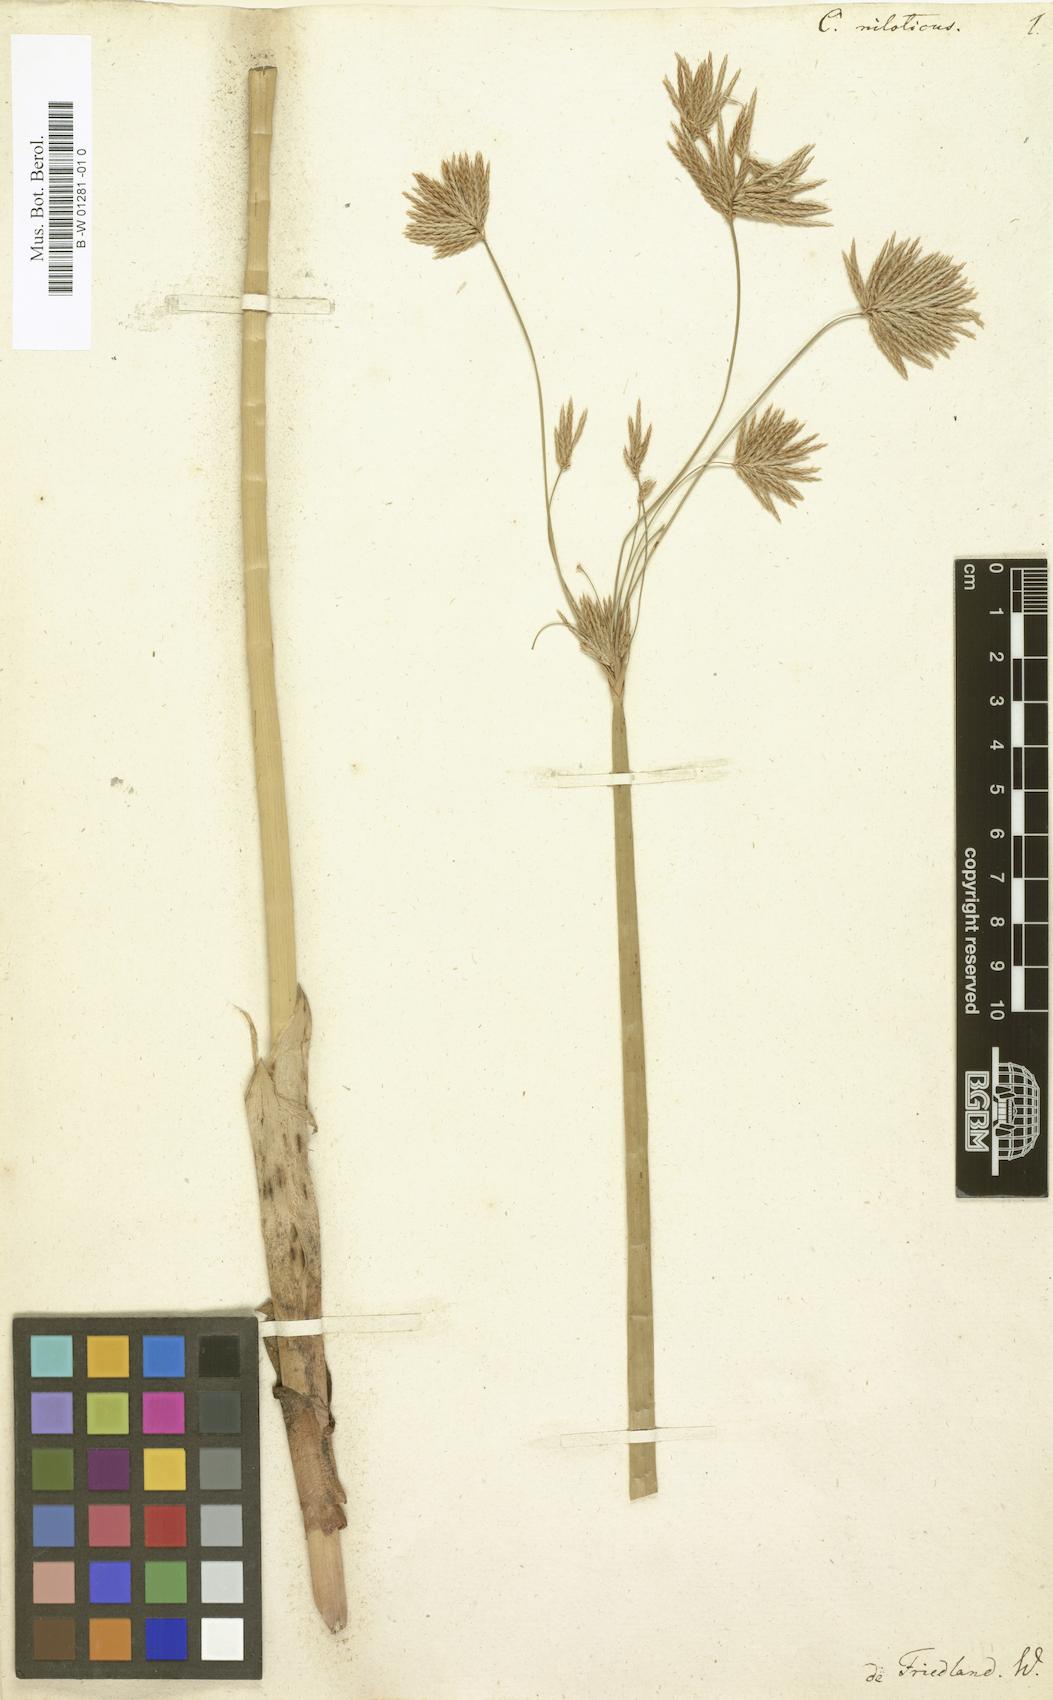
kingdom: Plantae
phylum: Tracheophyta
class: Liliopsida
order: Poales
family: Cyperaceae
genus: Cyperus
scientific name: Cyperus articulatus
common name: Jointed flatsedge
